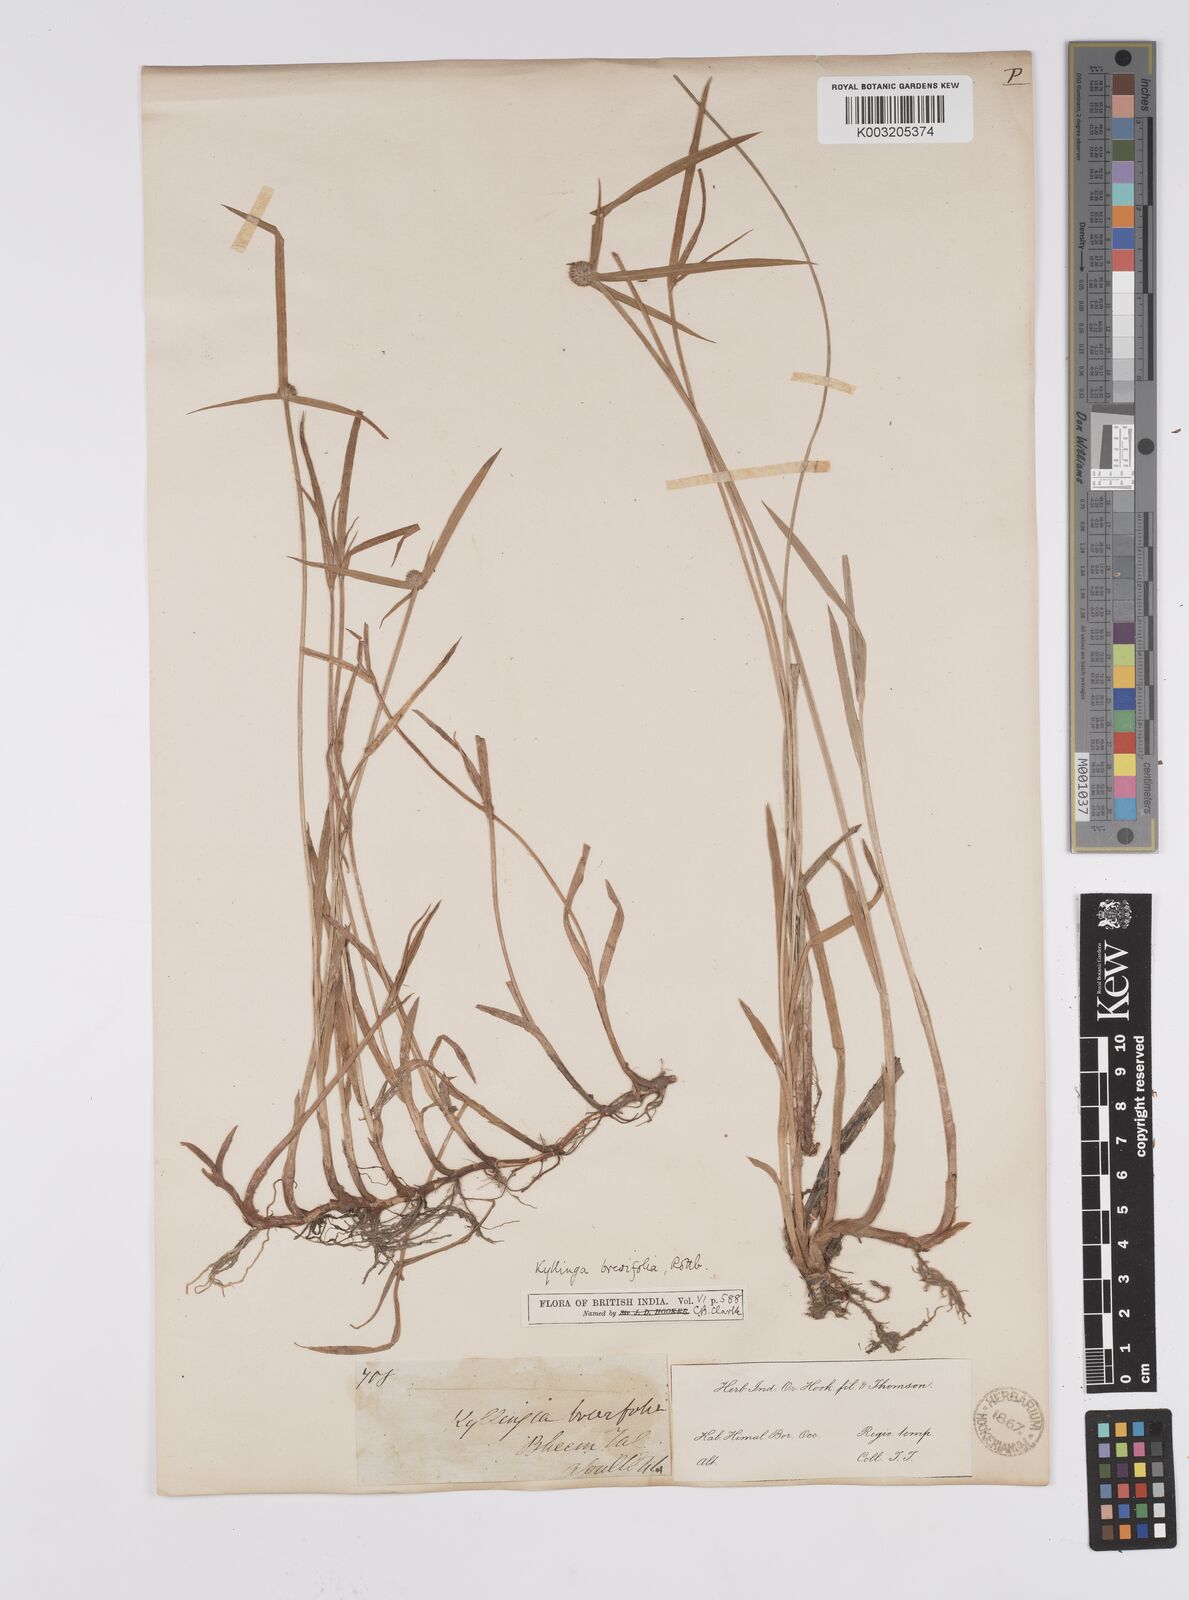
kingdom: Plantae
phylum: Tracheophyta
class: Liliopsida
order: Poales
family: Cyperaceae
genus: Cyperus
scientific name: Cyperus brevifolius
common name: Globe kyllinga
